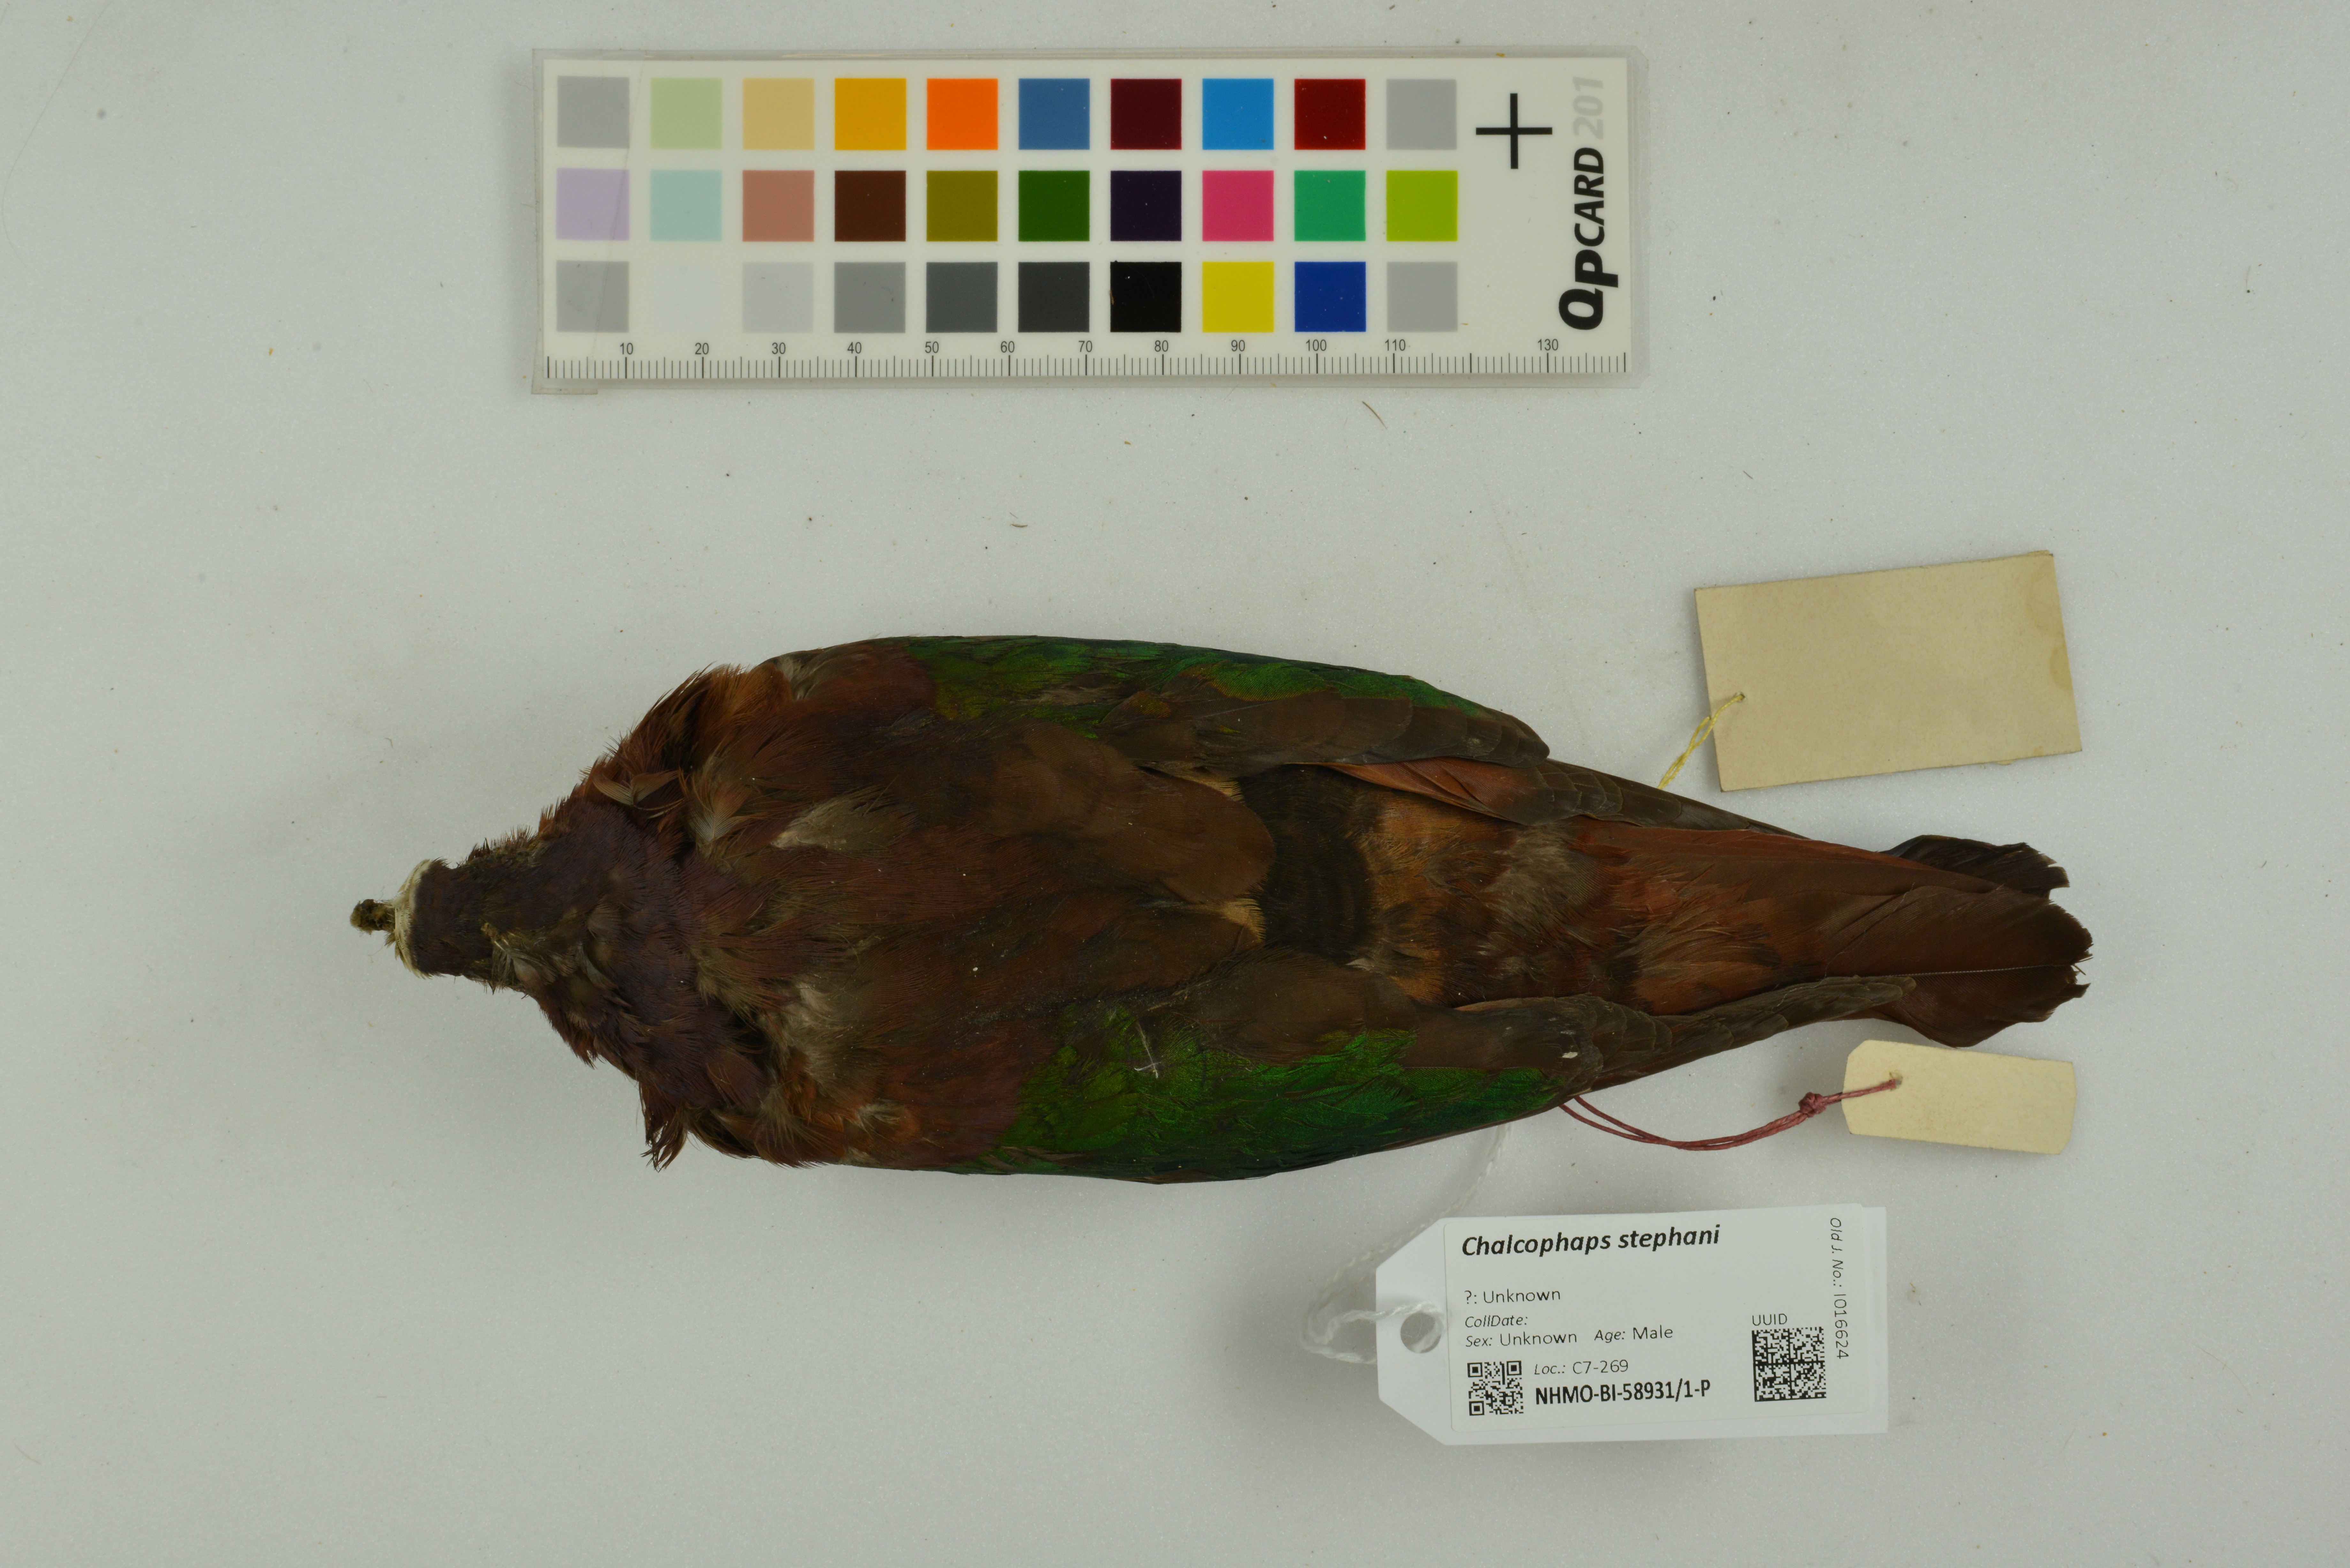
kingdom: Animalia
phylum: Chordata
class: Aves
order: Columbiformes
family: Columbidae
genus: Chalcophaps
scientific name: Chalcophaps stephani
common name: Stephan's emerald dove
